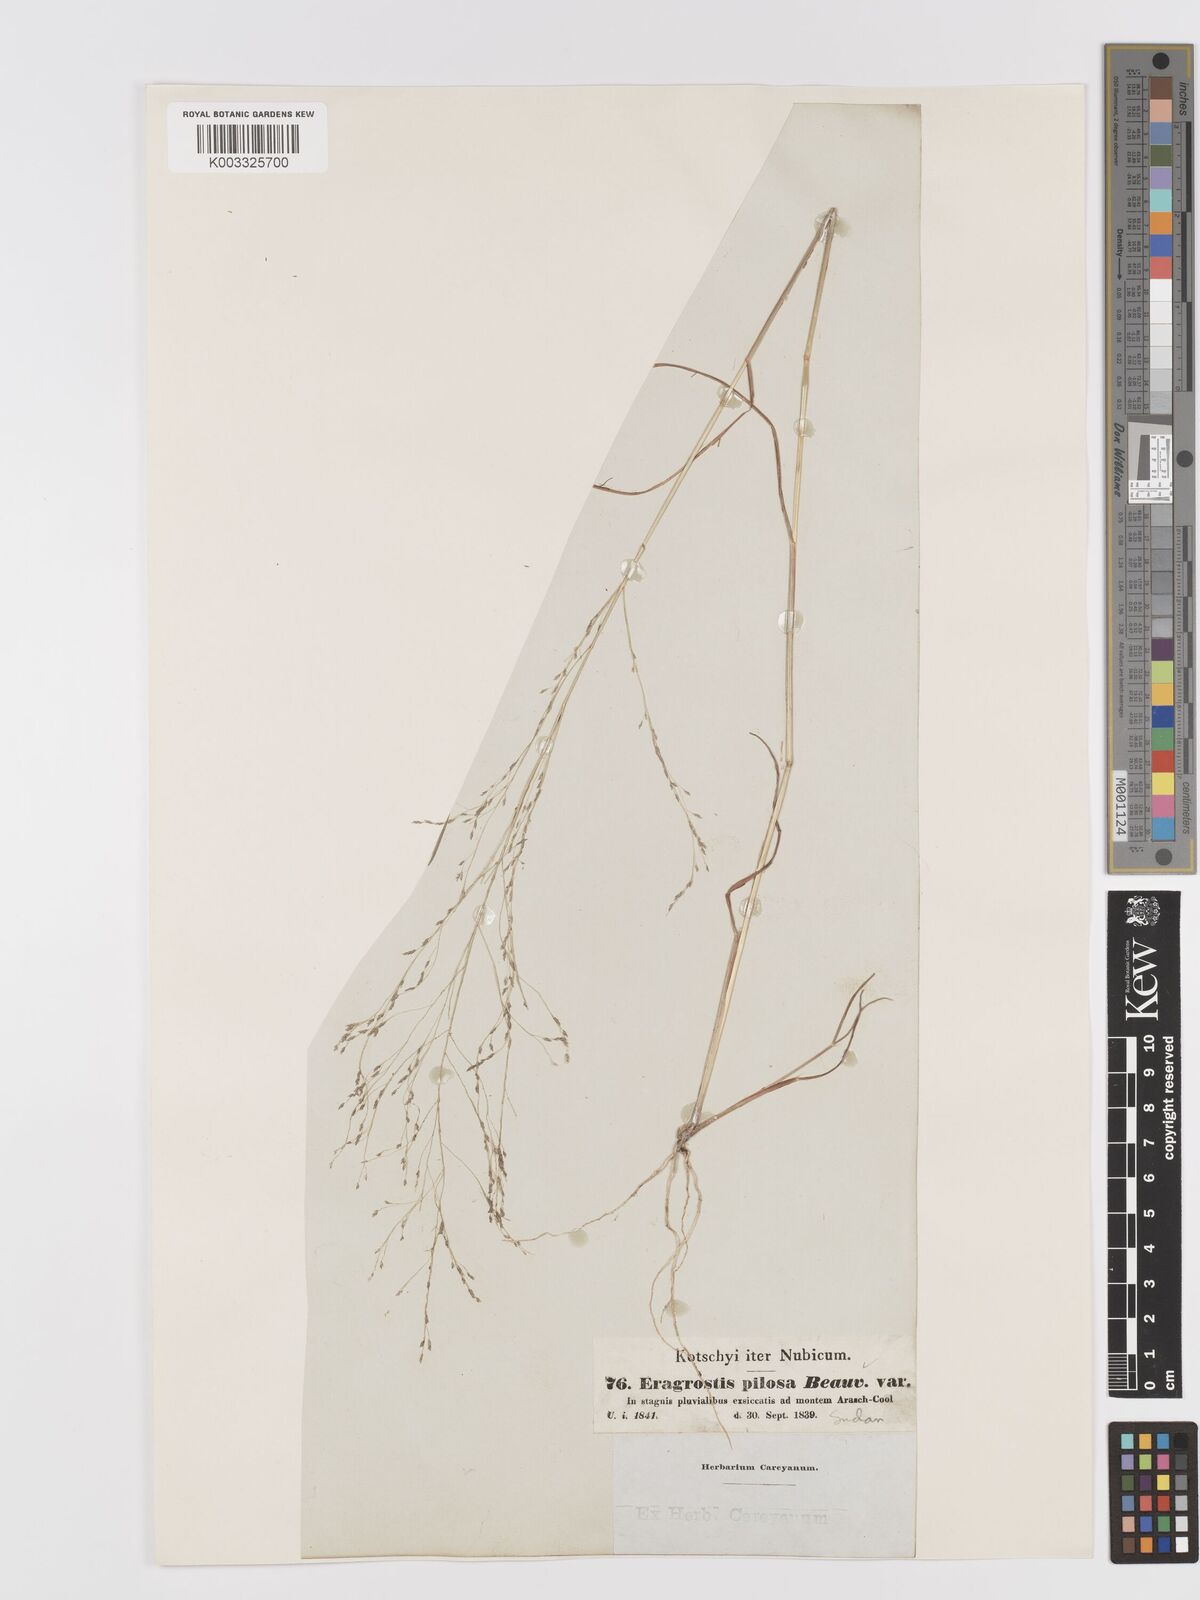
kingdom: Plantae
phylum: Tracheophyta
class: Liliopsida
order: Poales
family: Poaceae
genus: Eragrostis
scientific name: Eragrostis pilosa
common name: Indian lovegrass
